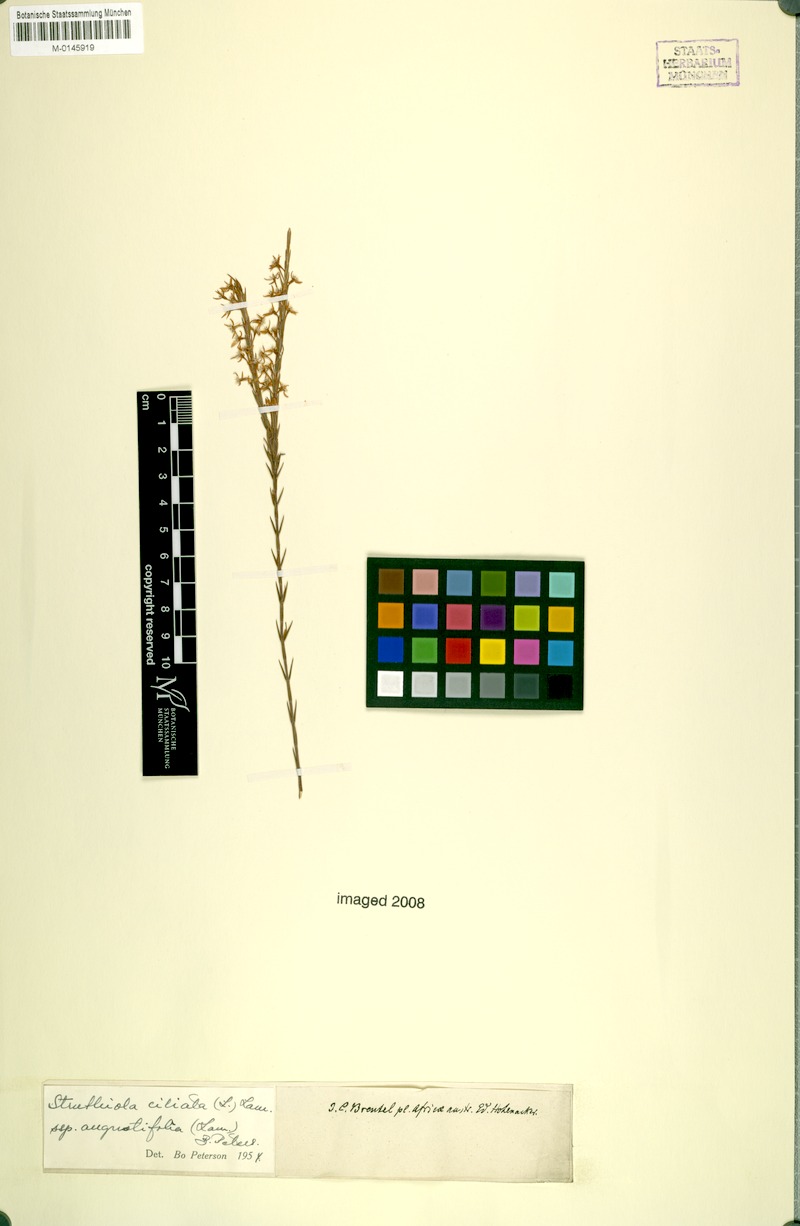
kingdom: Plantae
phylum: Tracheophyta
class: Magnoliopsida
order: Malvales
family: Thymelaeaceae
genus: Struthiola
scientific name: Struthiola ciliata
